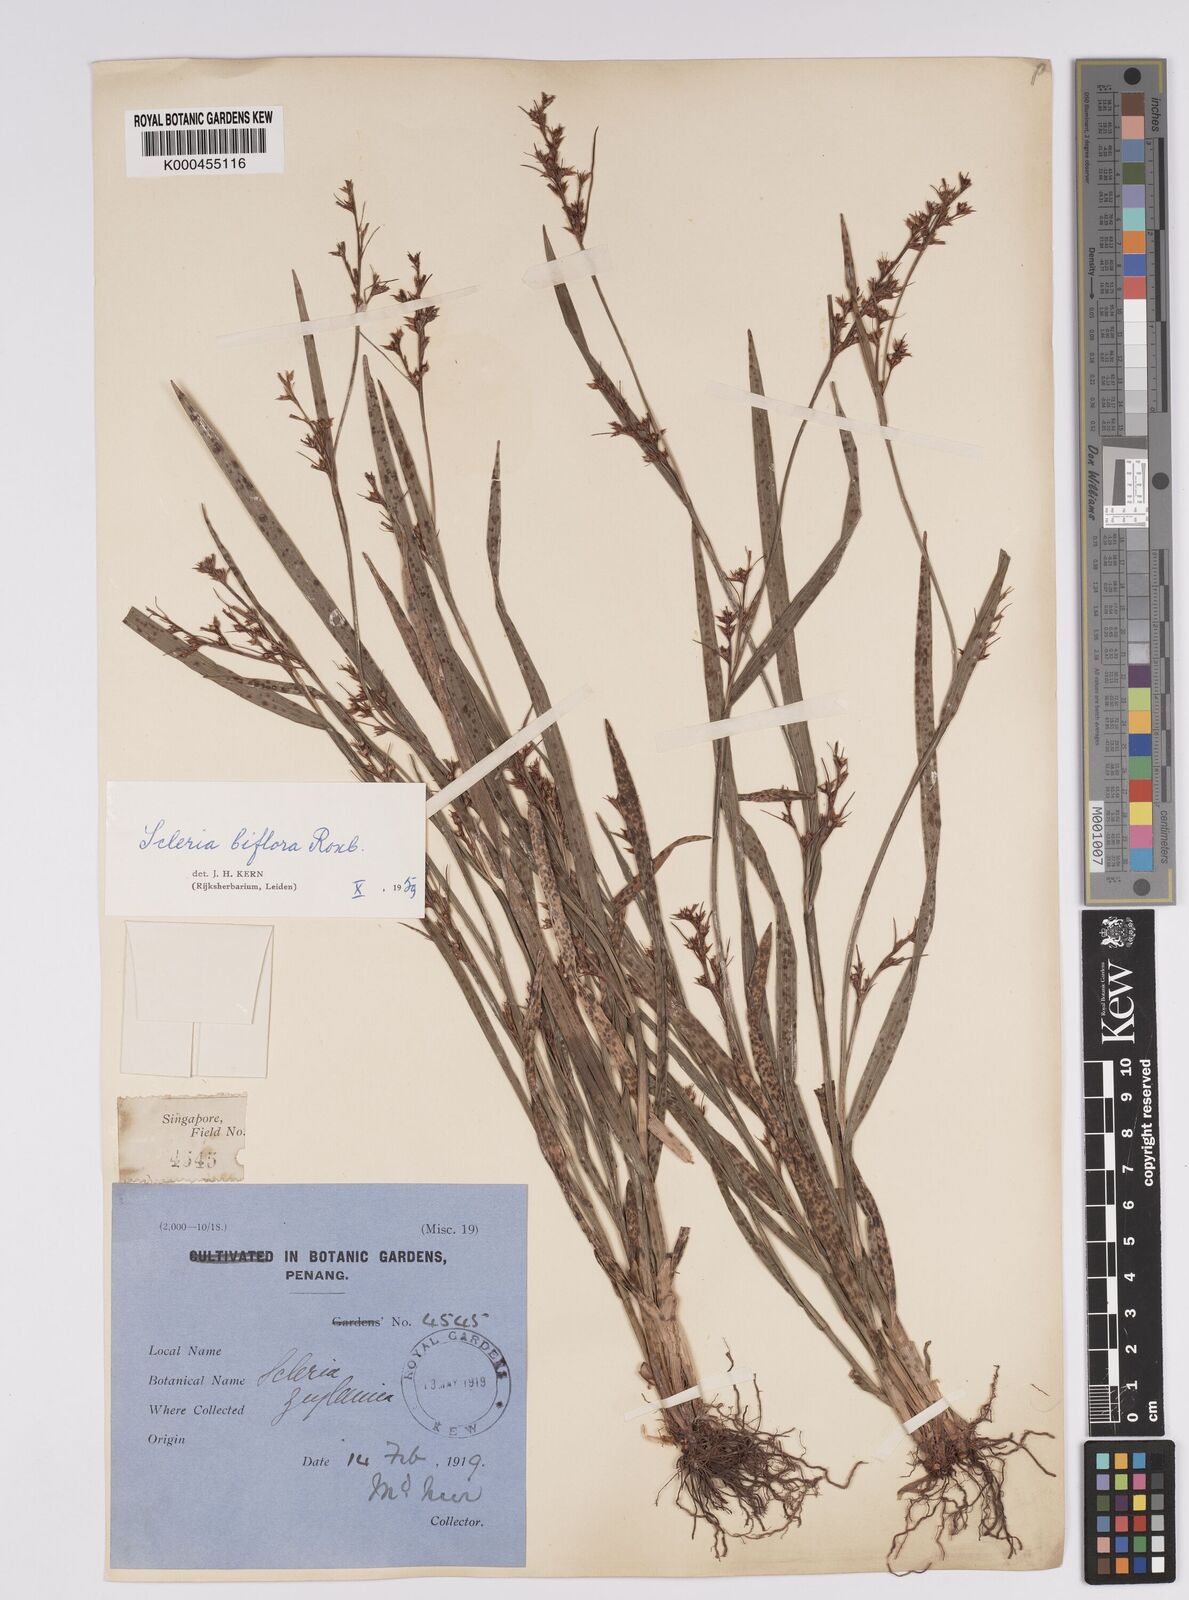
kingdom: Plantae
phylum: Tracheophyta
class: Liliopsida
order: Poales
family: Cyperaceae
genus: Scleria
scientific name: Scleria biflora
